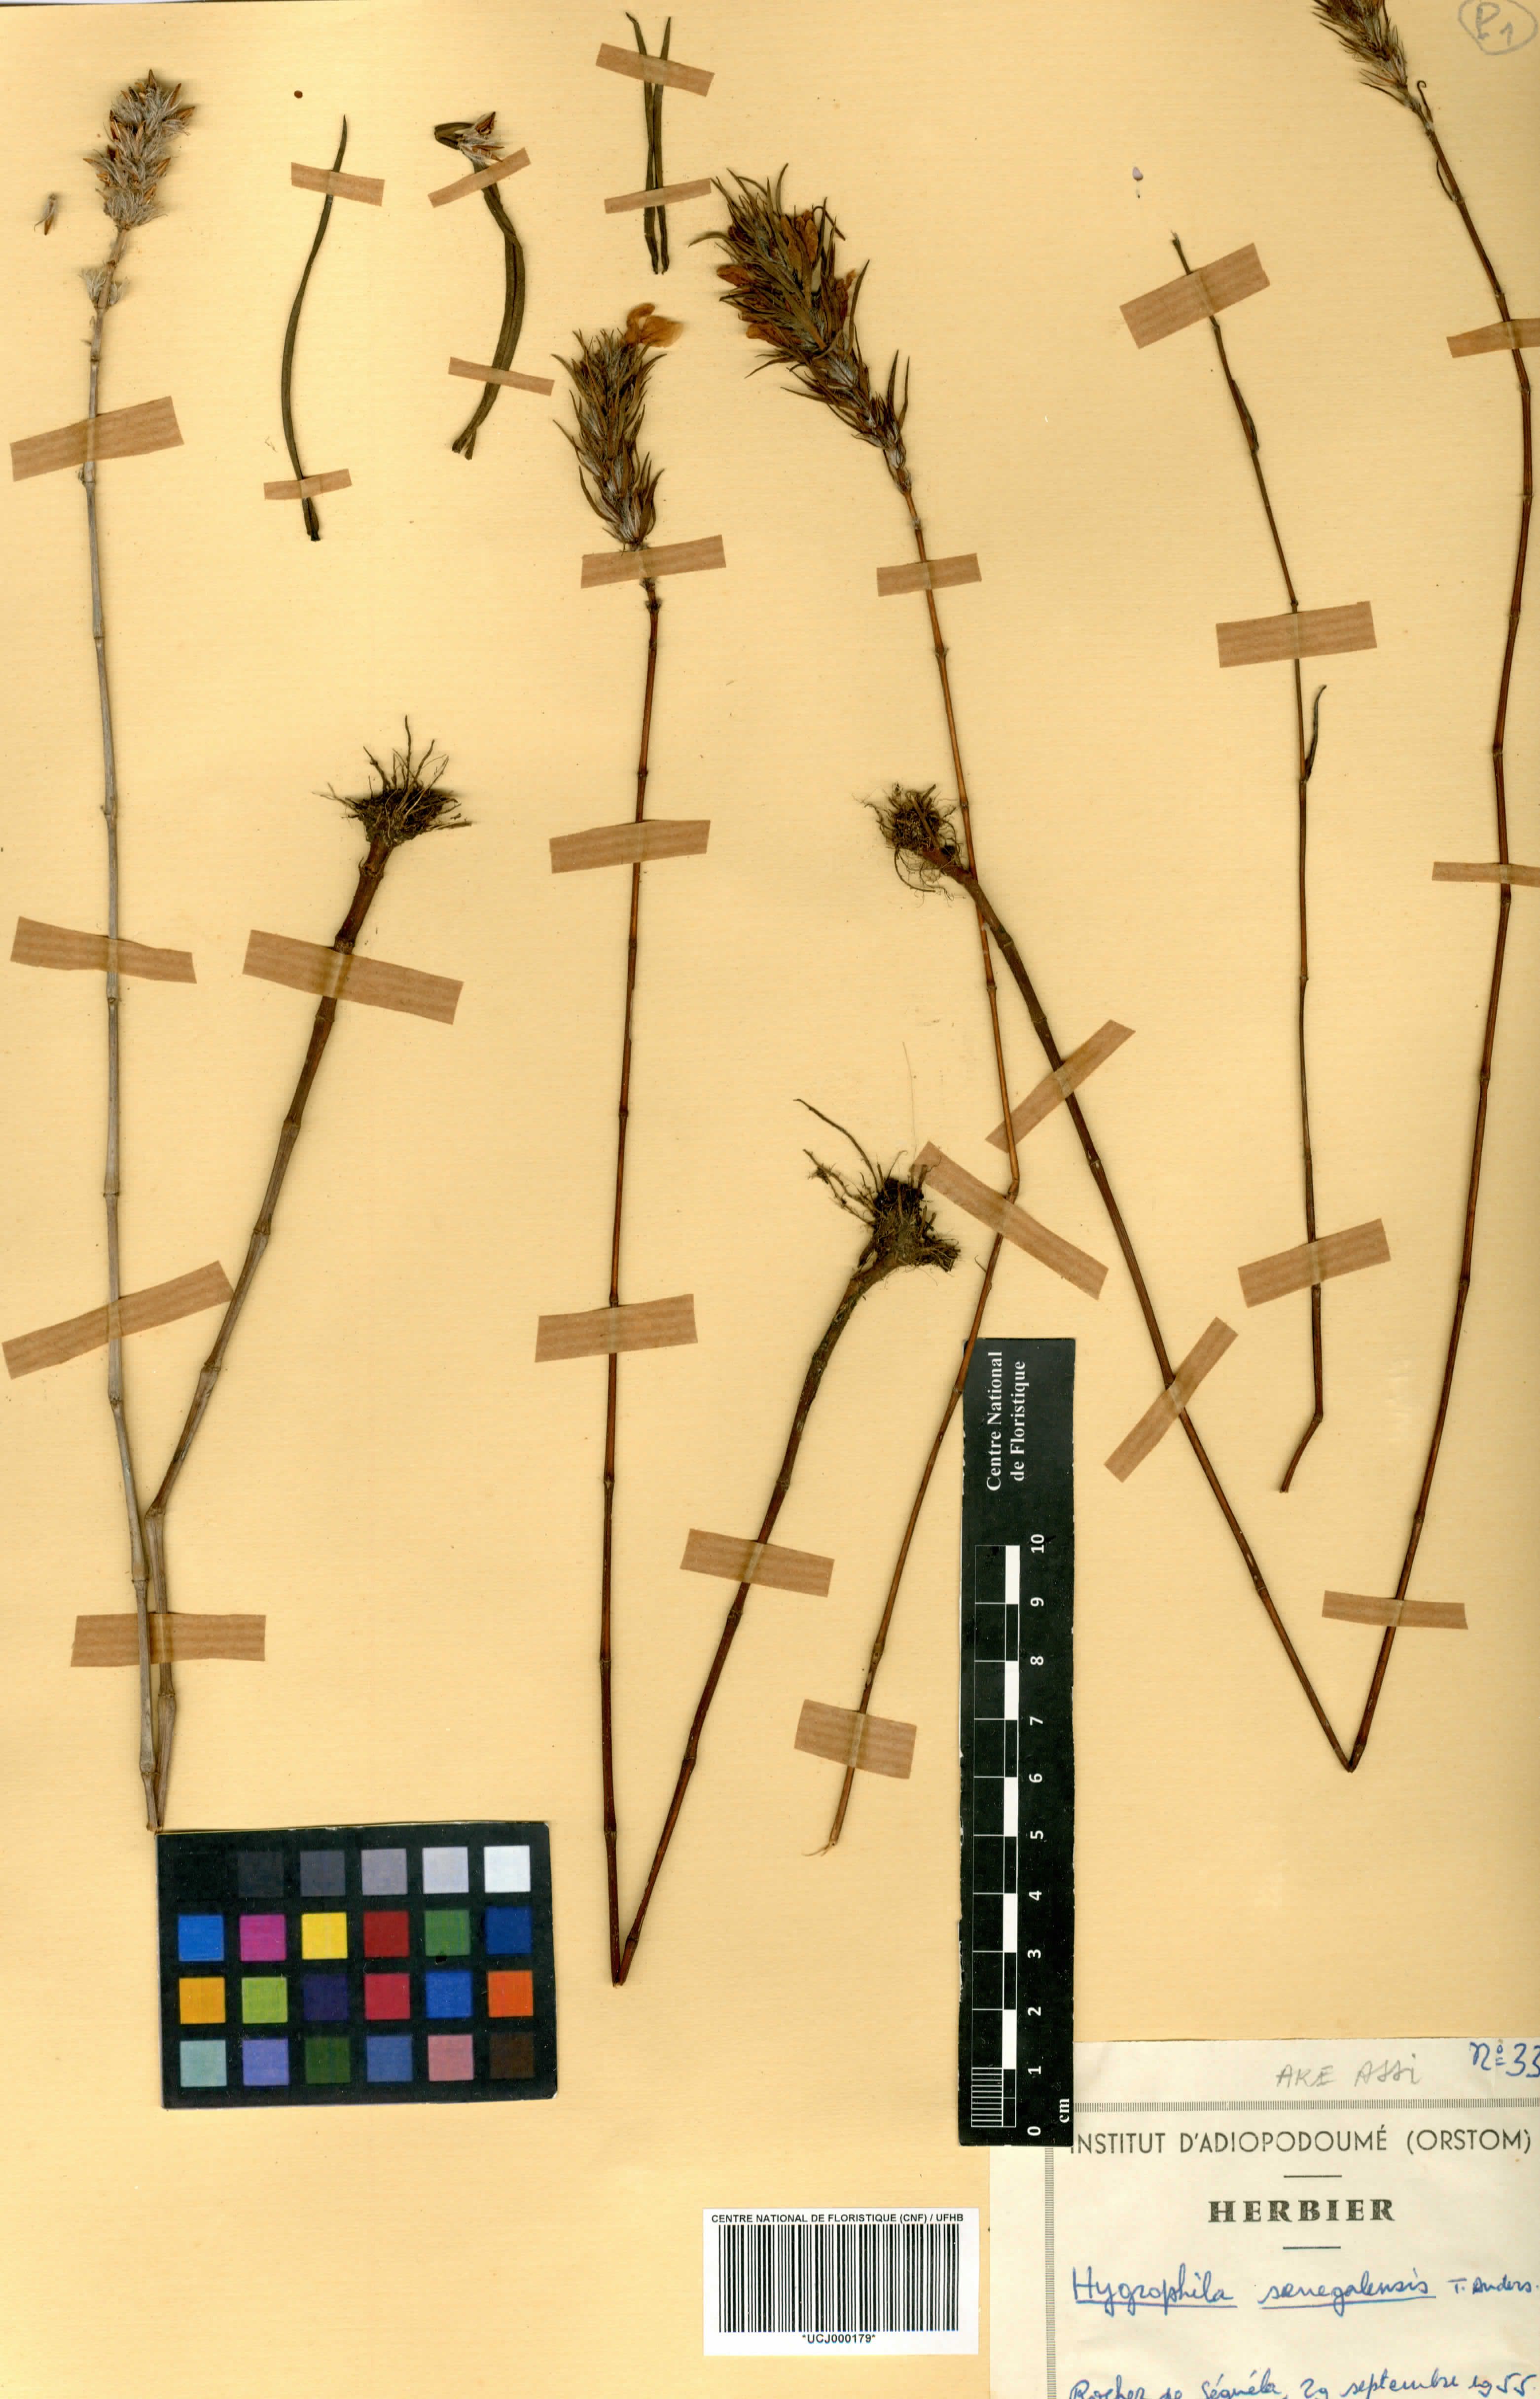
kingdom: Plantae
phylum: Tracheophyta
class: Magnoliopsida
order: Lamiales
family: Acanthaceae
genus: Hygrophila
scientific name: Hygrophila micrantha
